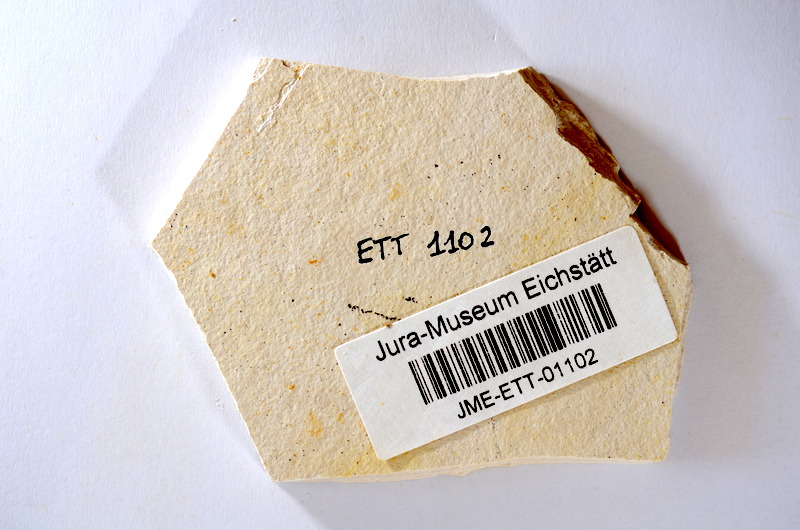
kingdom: Animalia
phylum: Chordata
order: Salmoniformes
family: Orthogonikleithridae
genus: Orthogonikleithrus
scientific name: Orthogonikleithrus hoelli
